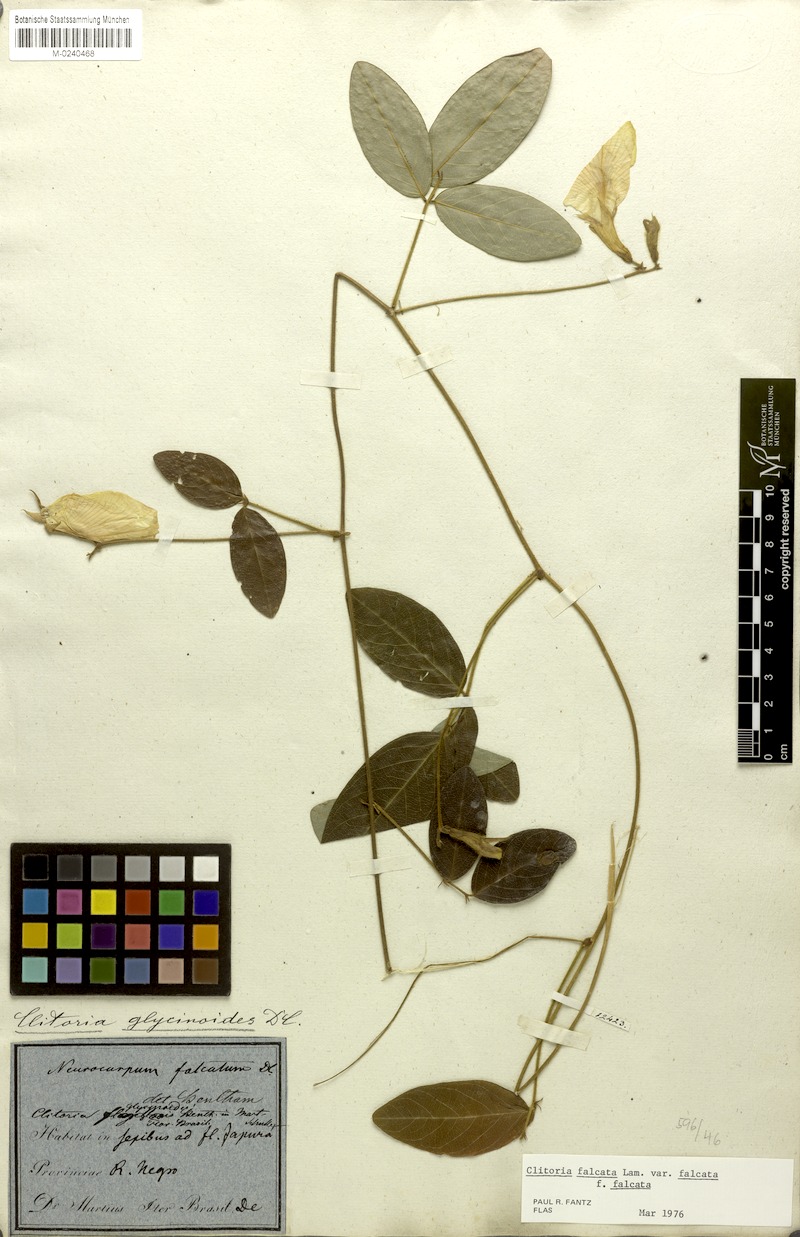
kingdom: Plantae
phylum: Tracheophyta
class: Magnoliopsida
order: Fabales
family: Fabaceae
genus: Clitoria
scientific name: Clitoria falcata
